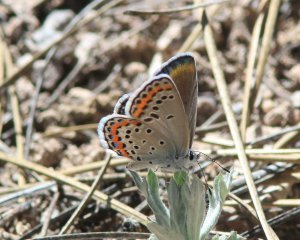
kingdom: Animalia
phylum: Arthropoda
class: Insecta
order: Lepidoptera
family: Lycaenidae
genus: Lycaeides
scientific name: Lycaeides melissa
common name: Melissa Blue
